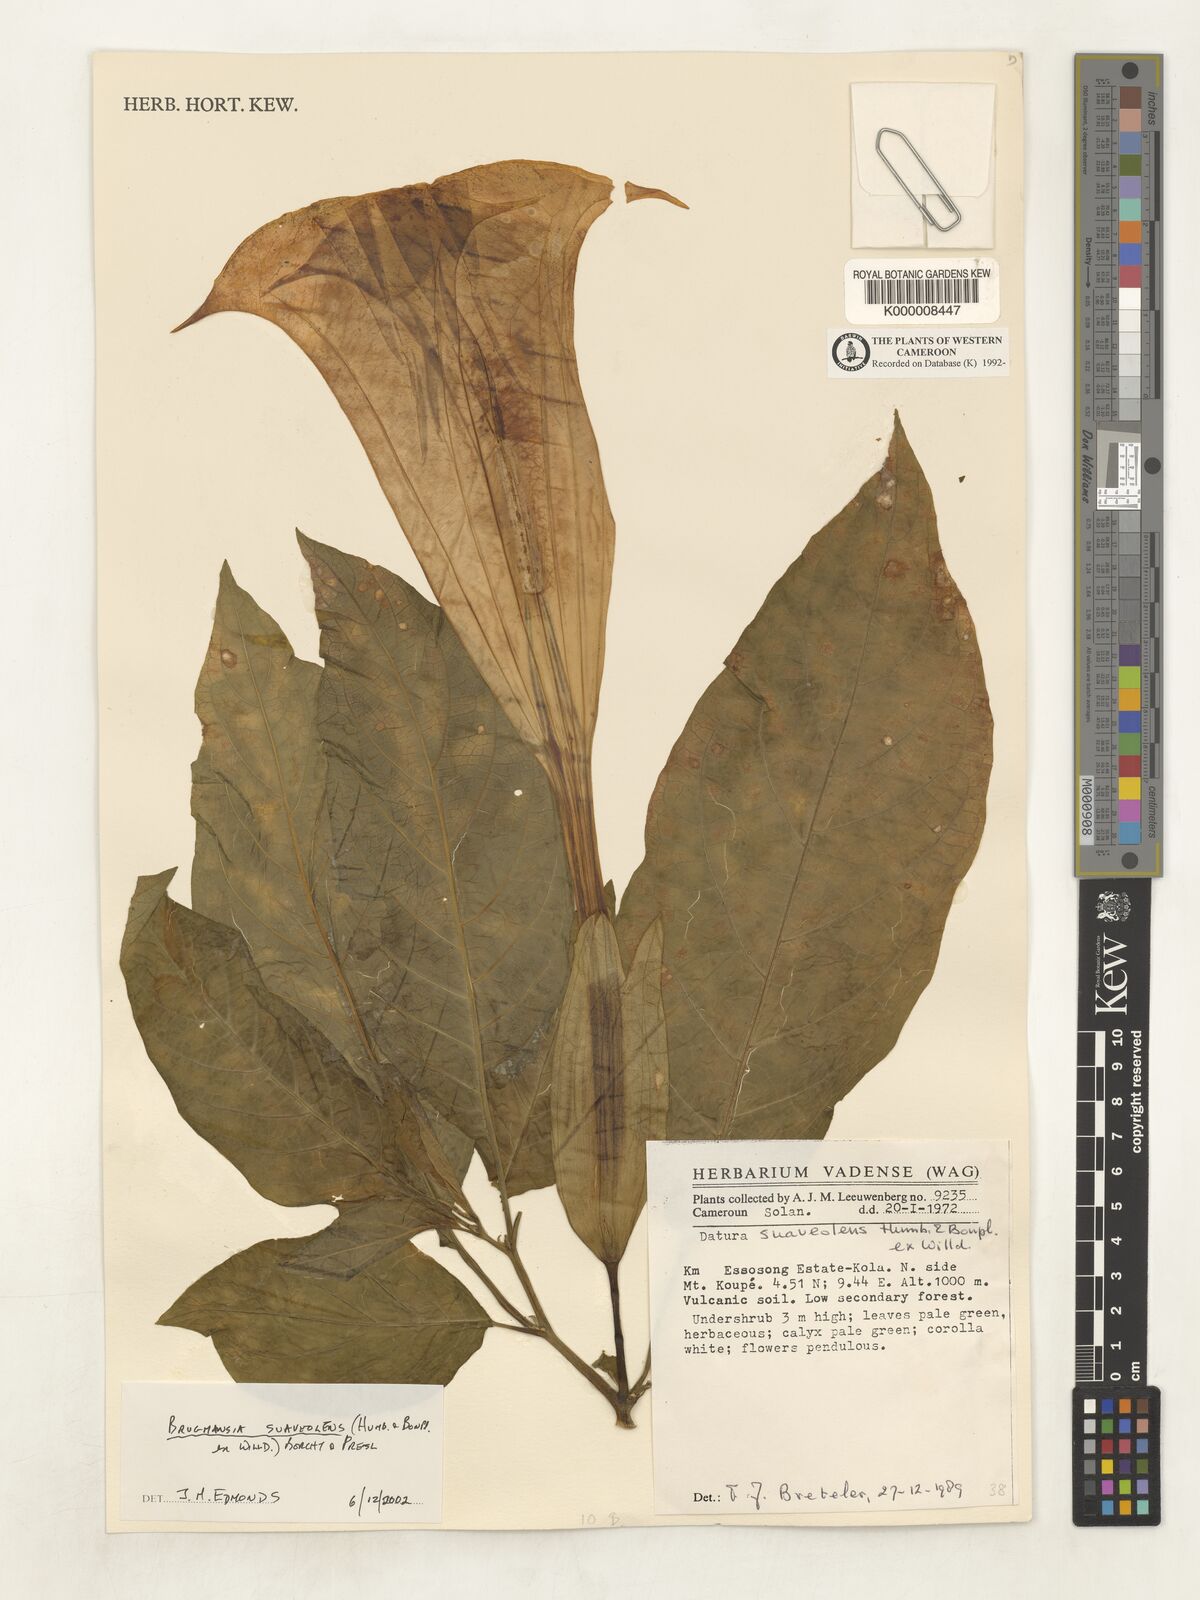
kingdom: Plantae
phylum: Tracheophyta
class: Magnoliopsida
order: Solanales
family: Solanaceae
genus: Brugmansia
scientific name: Brugmansia
